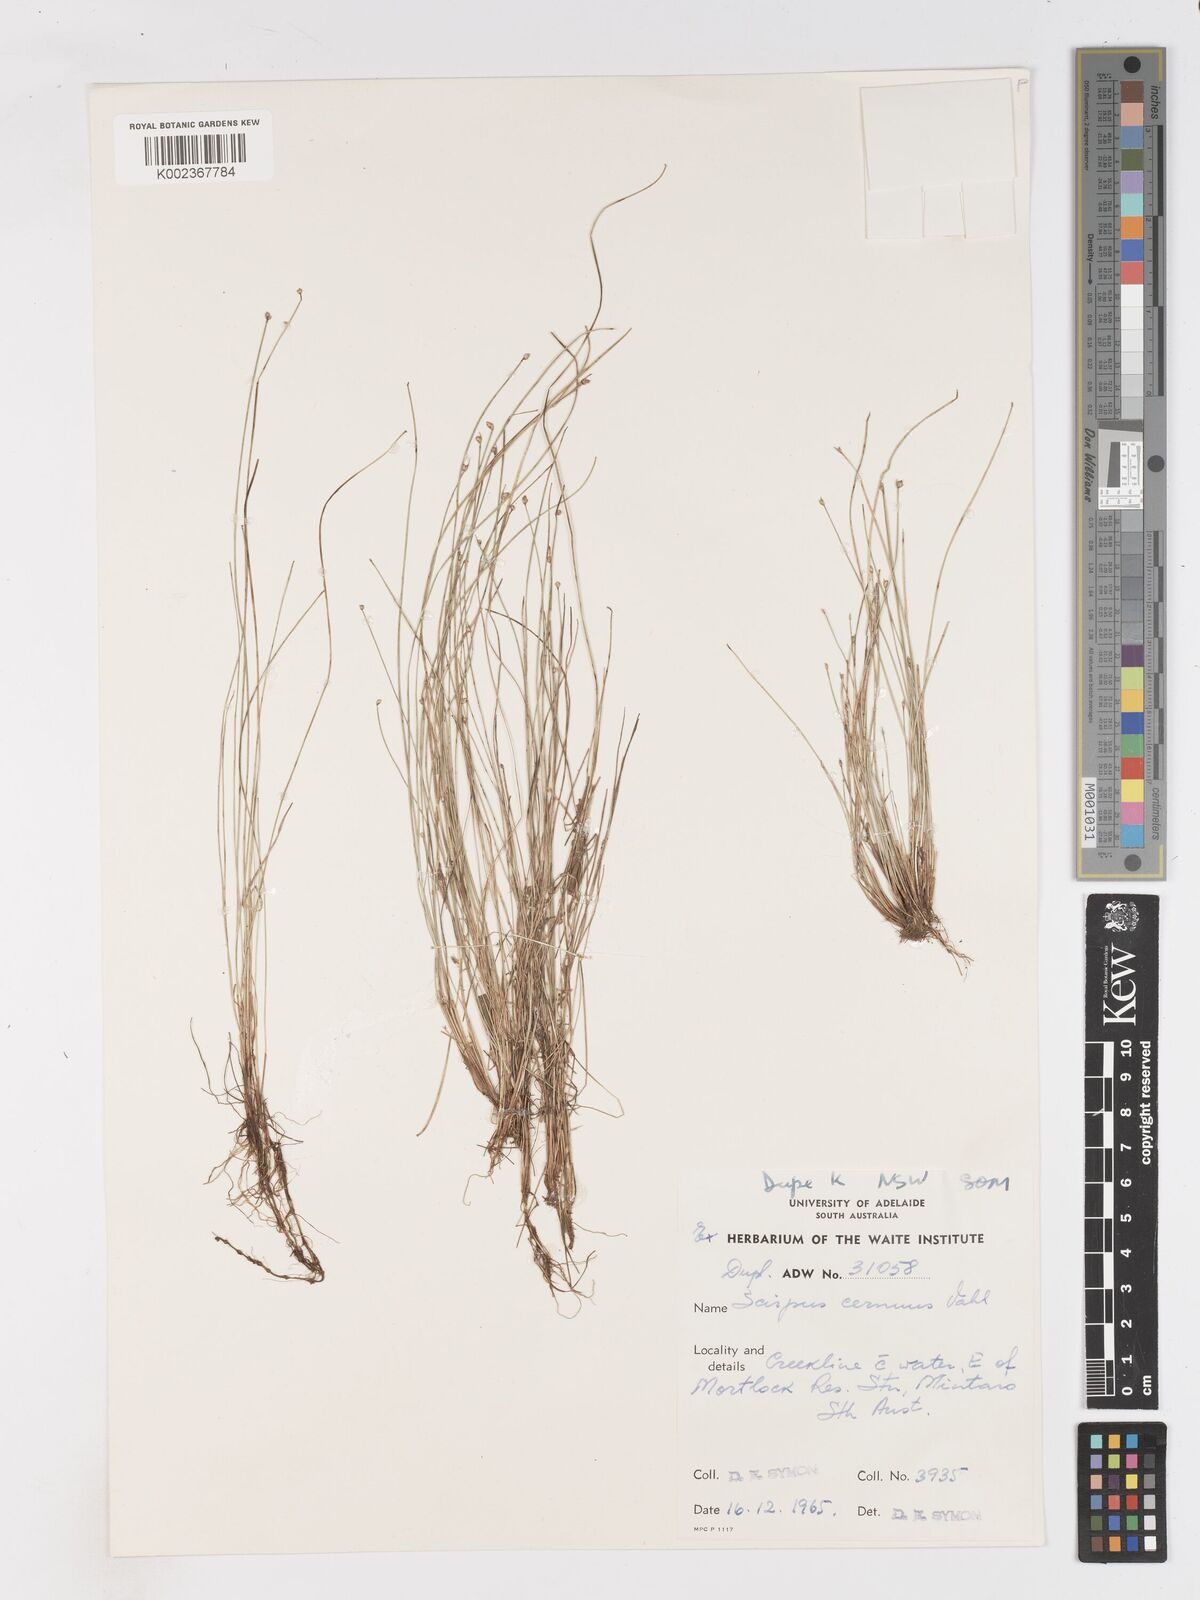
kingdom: Plantae
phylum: Tracheophyta
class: Liliopsida
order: Poales
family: Cyperaceae
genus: Isolepis
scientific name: Isolepis cernua
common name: Slender club-rush
